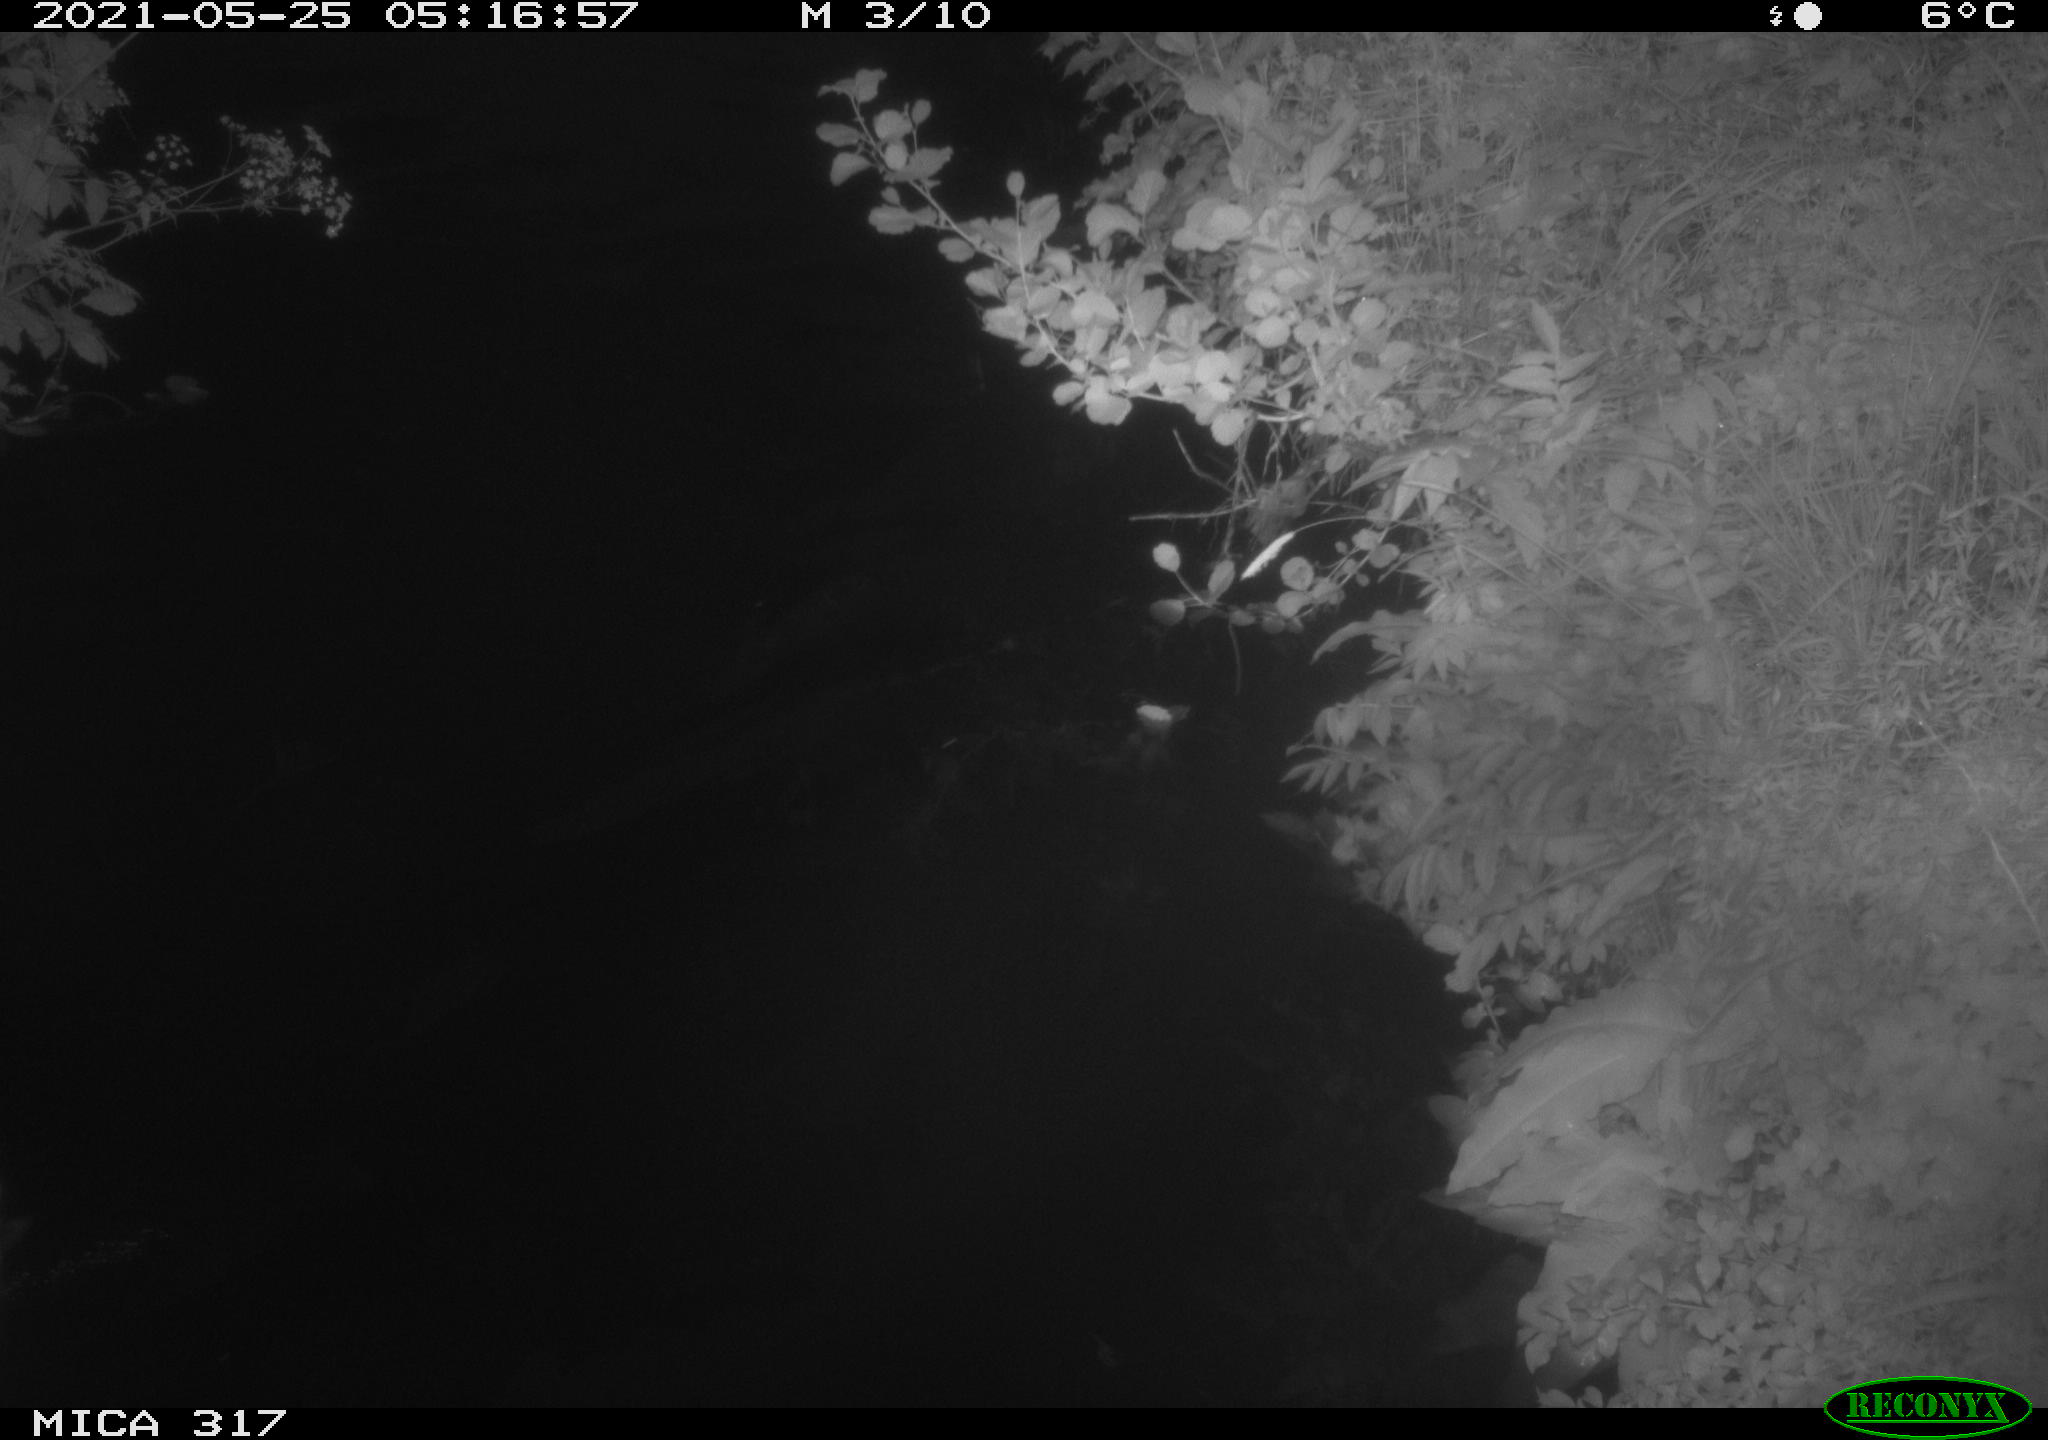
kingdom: Animalia
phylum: Chordata
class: Aves
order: Anseriformes
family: Anatidae
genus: Anas
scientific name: Anas
